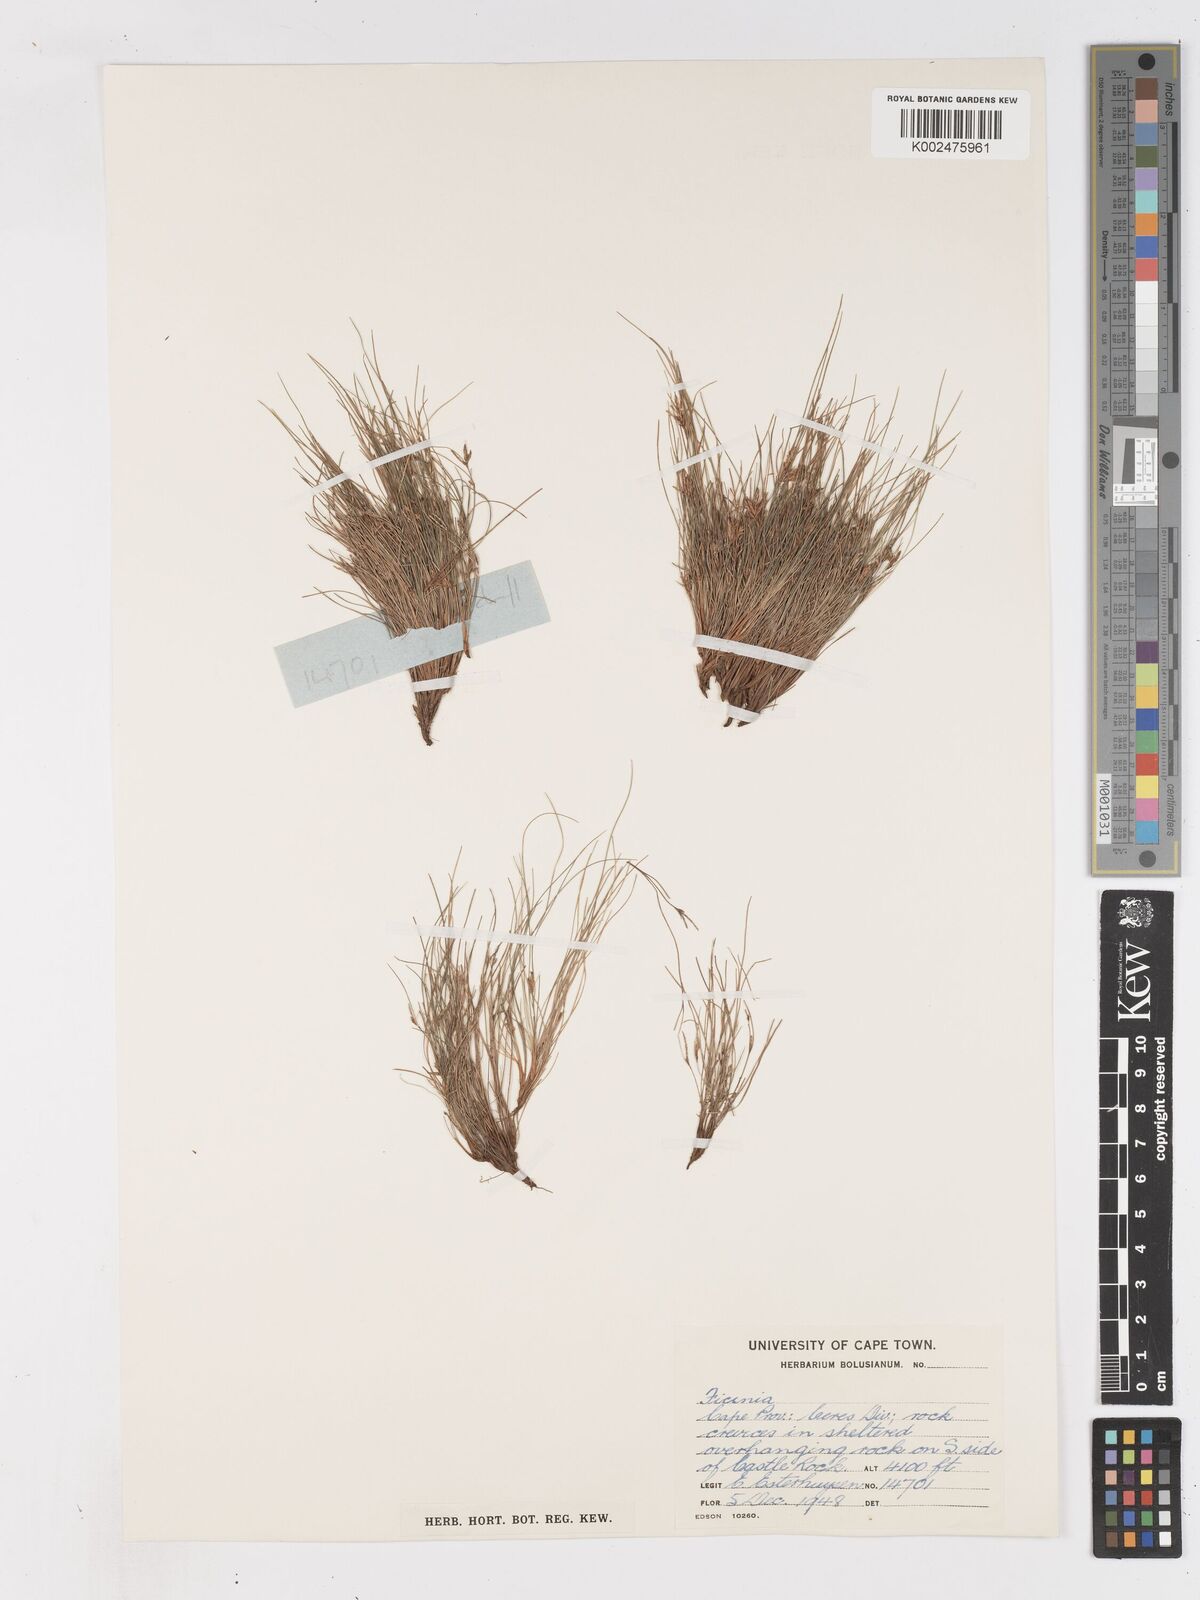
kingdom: Plantae
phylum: Tracheophyta
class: Liliopsida
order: Poales
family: Cyperaceae
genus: Ficinia
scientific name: Ficinia esterhuyseniae
